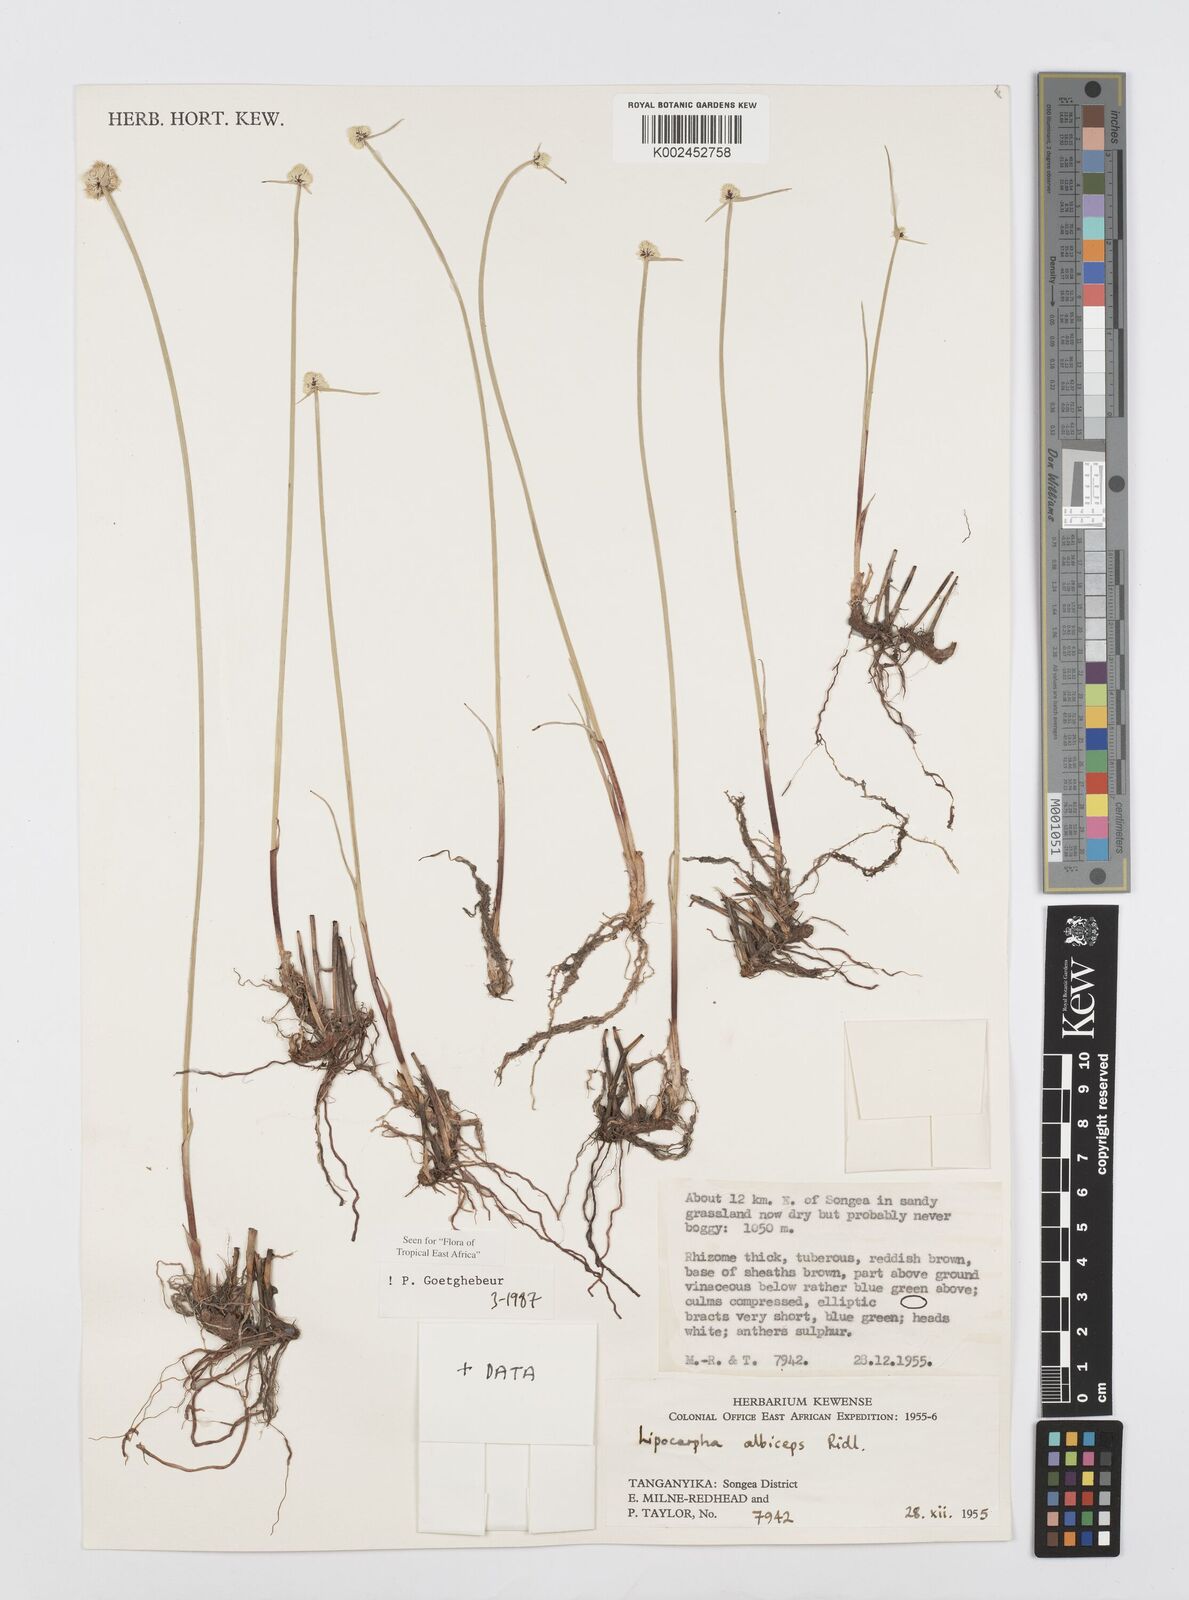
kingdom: Plantae
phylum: Tracheophyta
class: Liliopsida
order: Poales
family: Cyperaceae
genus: Cyperus
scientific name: Cyperus albiceps
